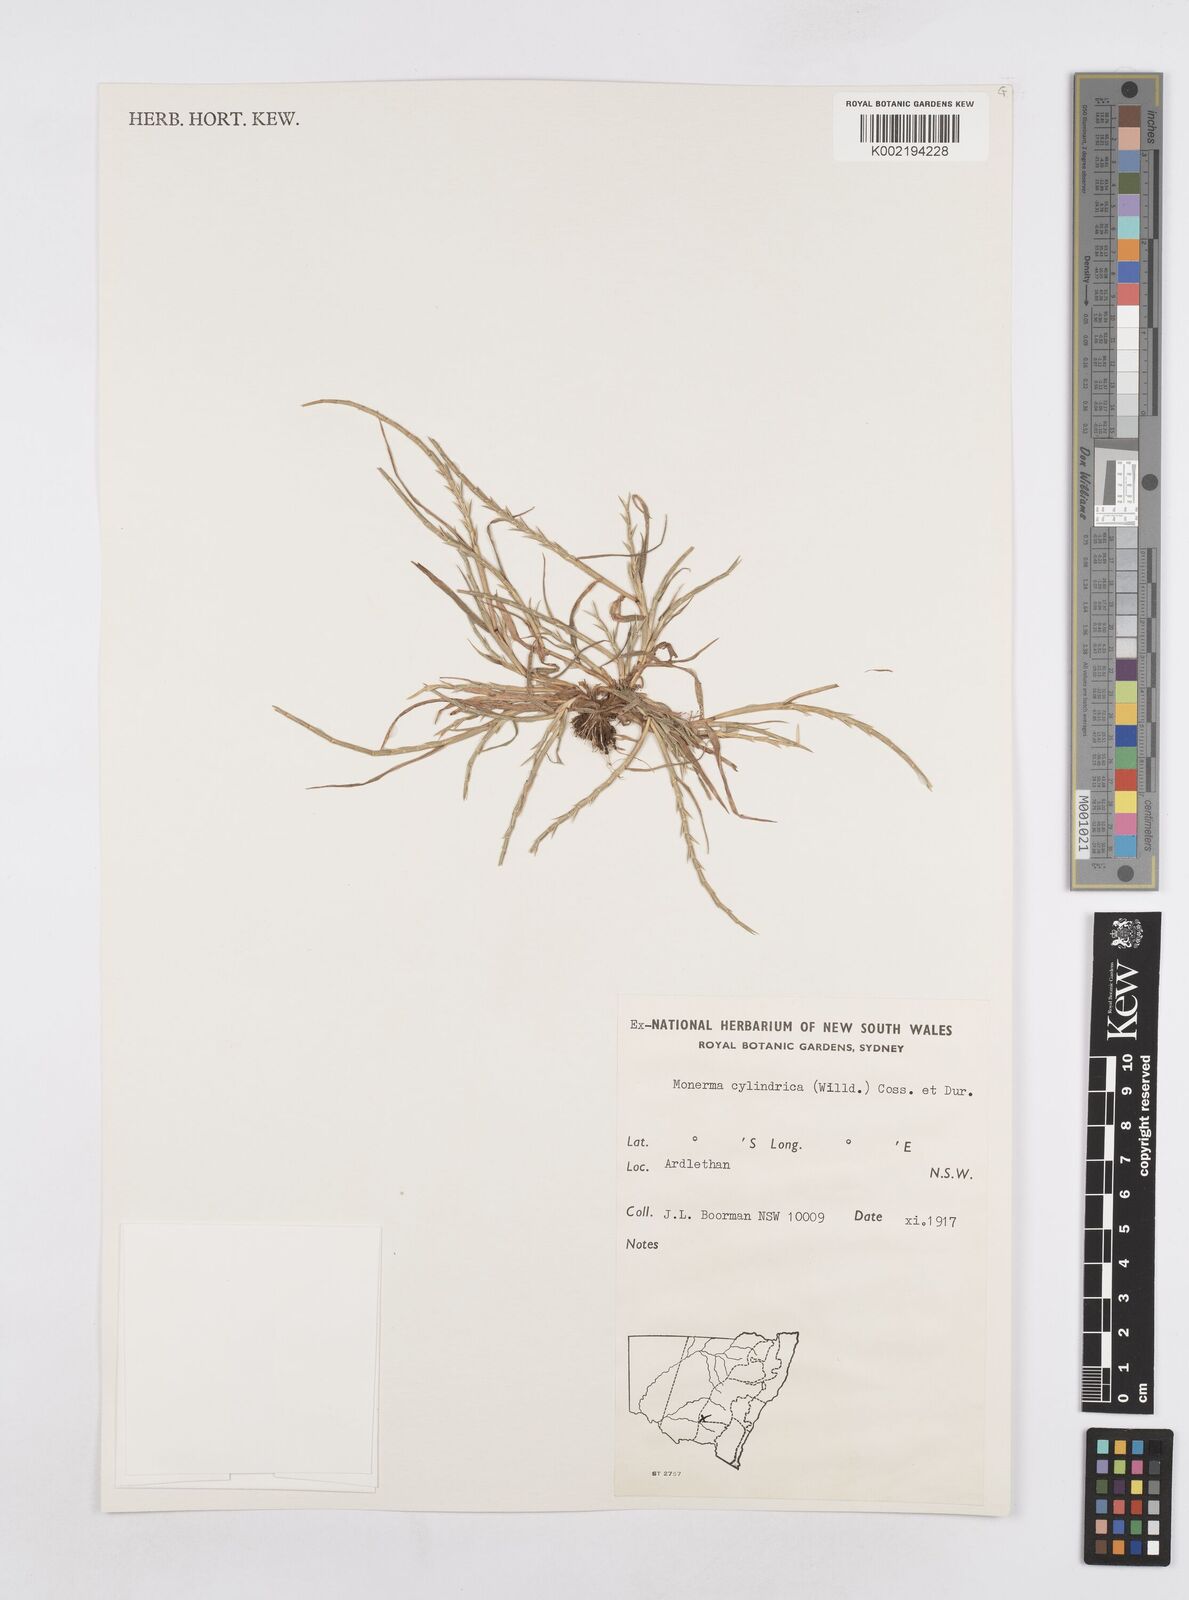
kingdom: Plantae
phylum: Tracheophyta
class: Liliopsida
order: Poales
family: Poaceae
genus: Parapholis
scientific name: Parapholis cylindrica
